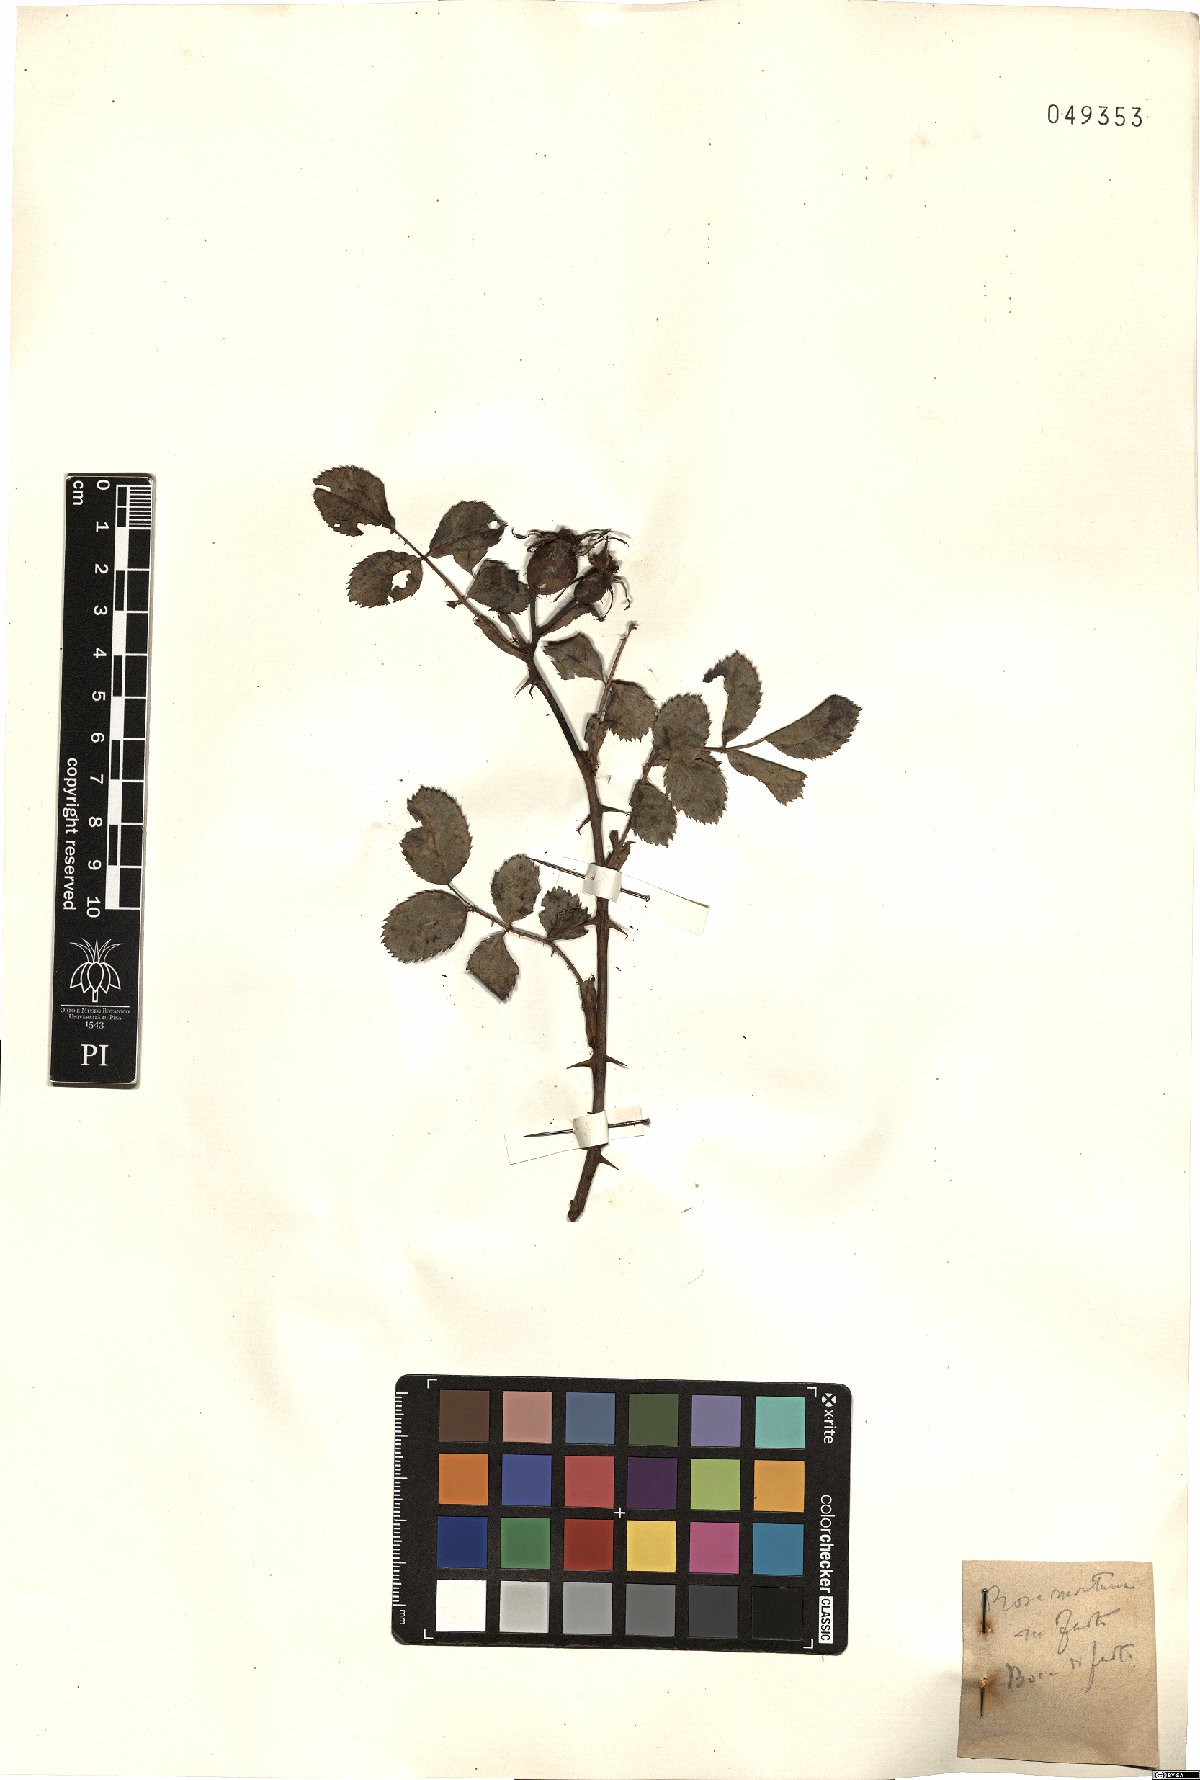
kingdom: Plantae
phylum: Tracheophyta
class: Magnoliopsida
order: Rosales
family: Rosaceae
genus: Rosa
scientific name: Rosa montana
